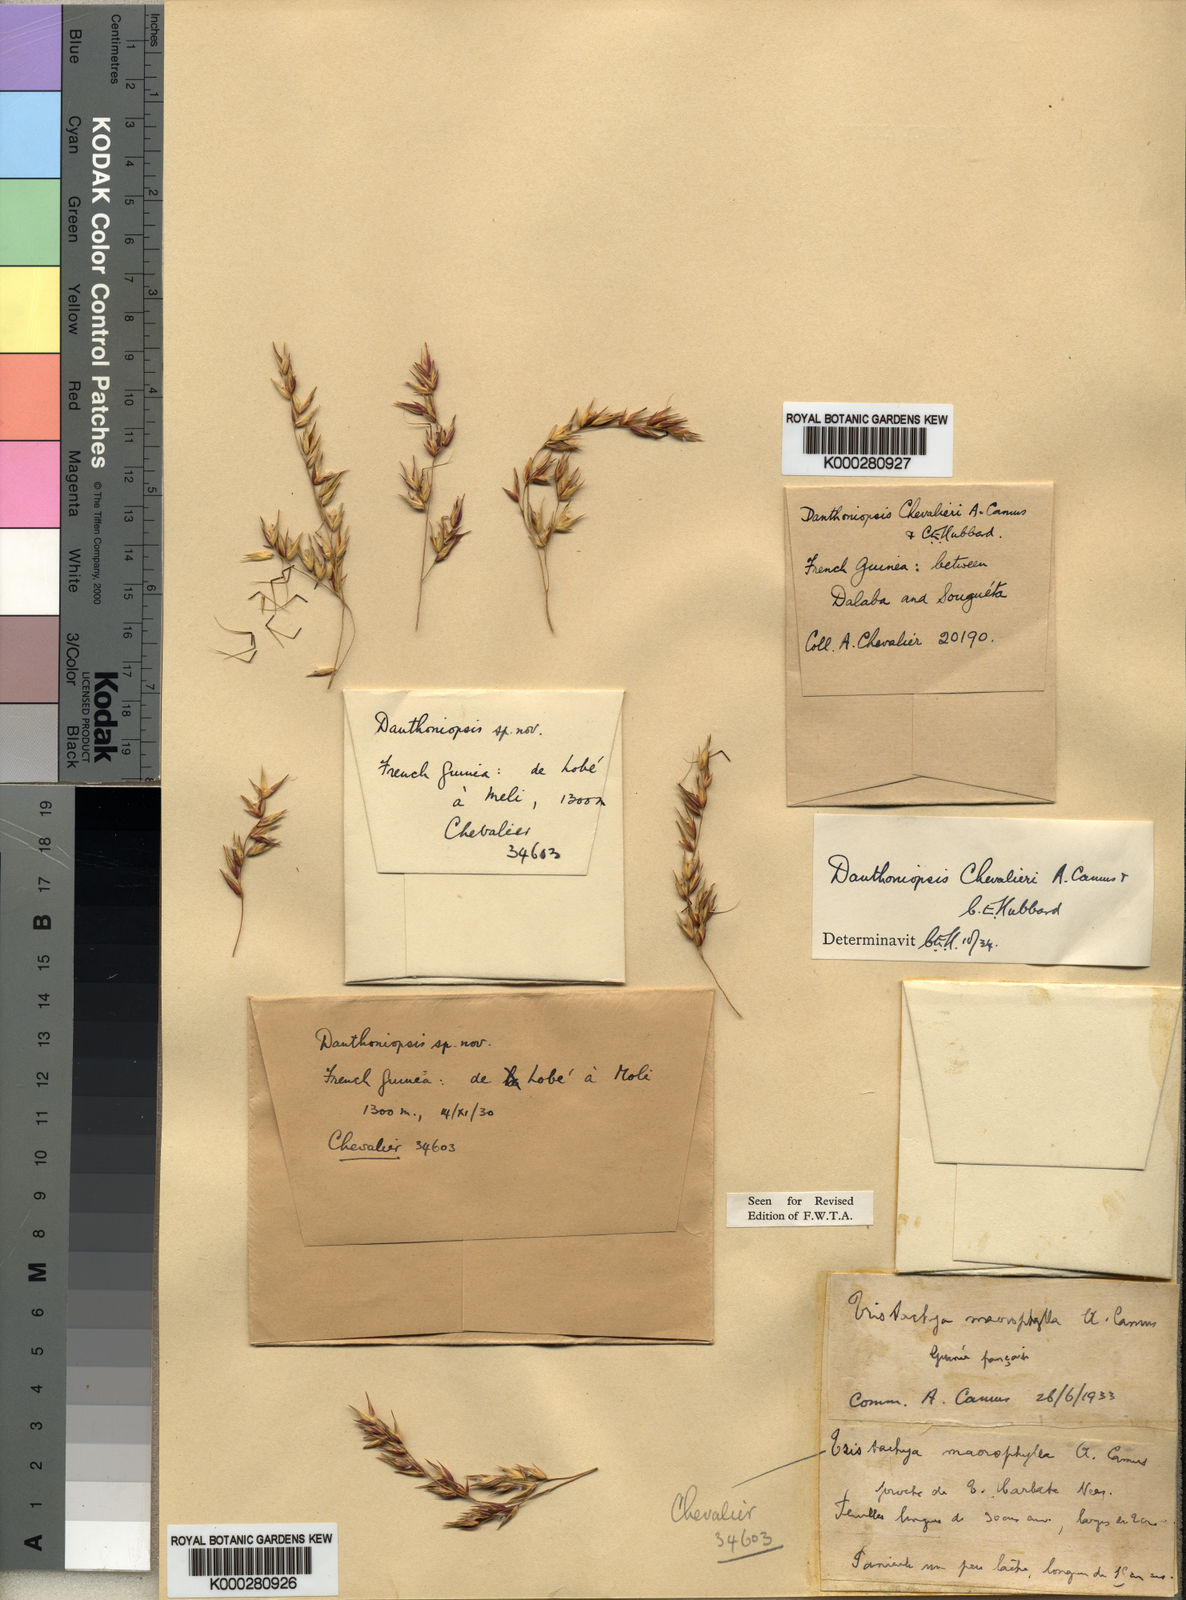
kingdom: Plantae
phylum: Tracheophyta
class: Liliopsida
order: Poales
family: Poaceae
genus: Danthoniopsis
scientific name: Danthoniopsis chevalieri
